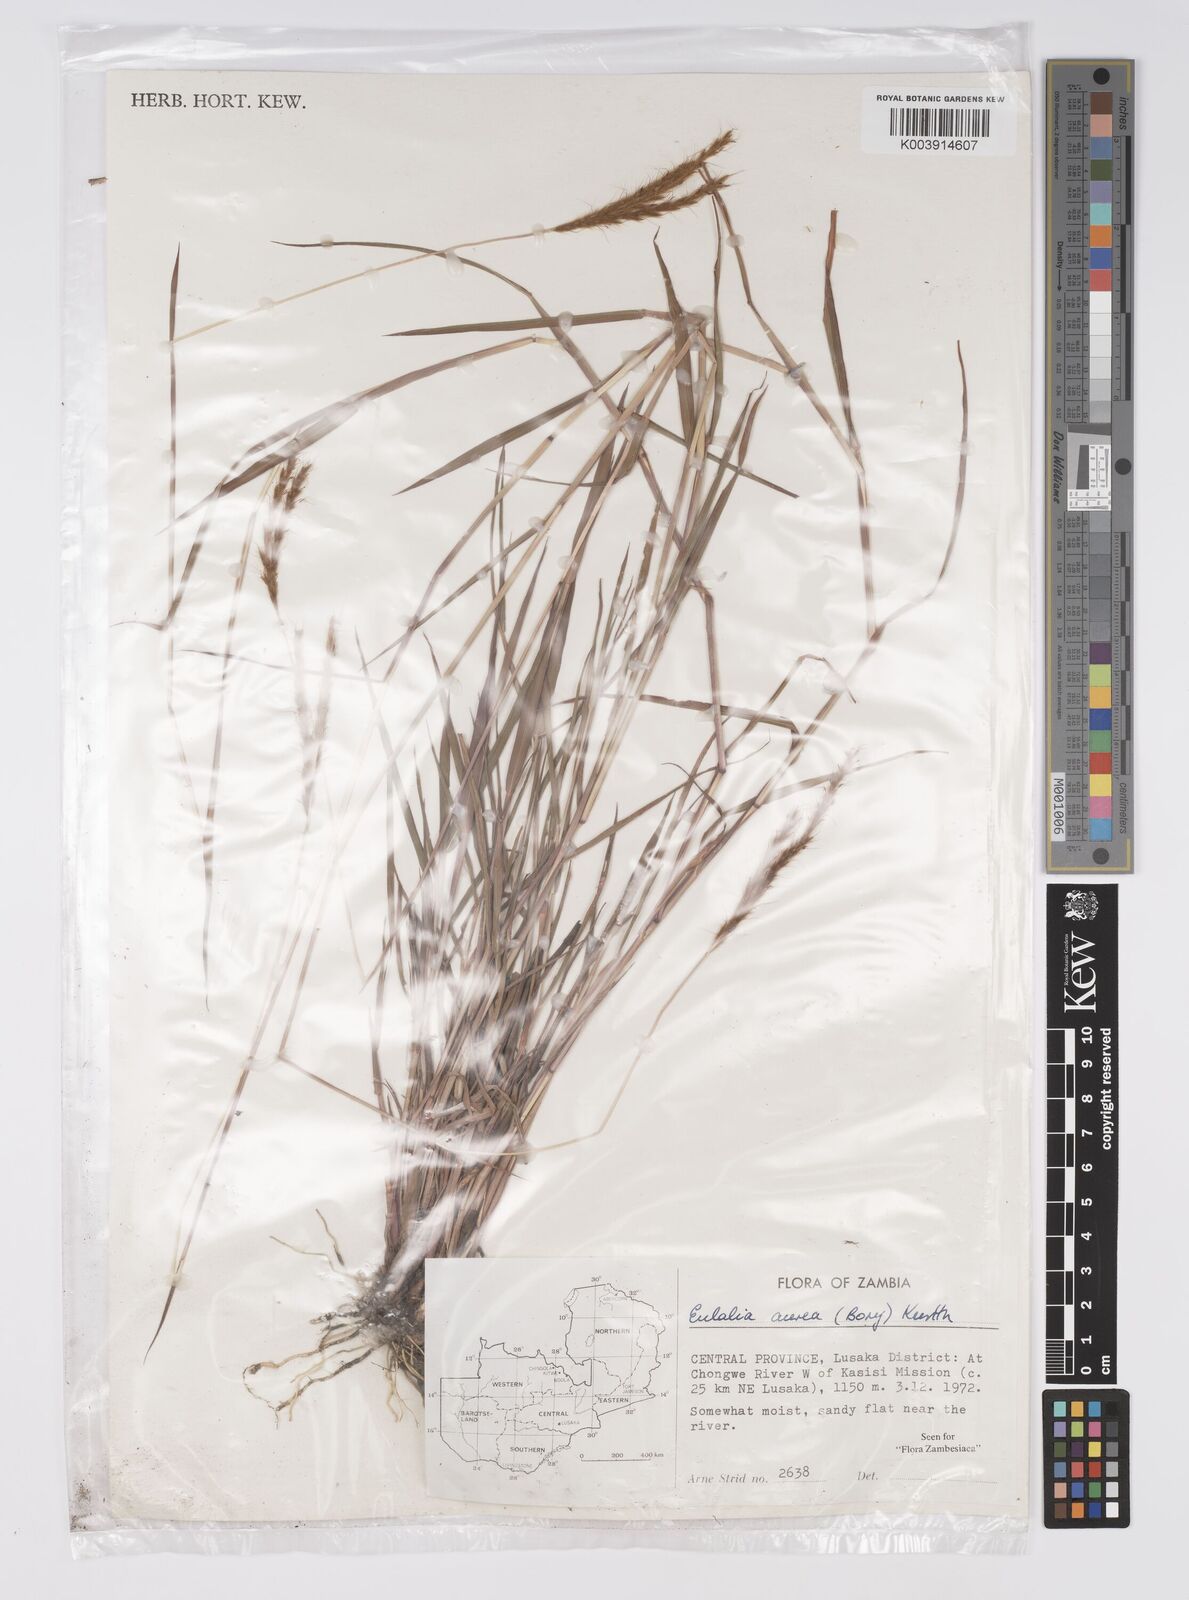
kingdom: Plantae
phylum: Tracheophyta
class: Liliopsida
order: Poales
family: Poaceae
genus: Eulalia
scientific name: Eulalia aurea
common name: Silky browntop
